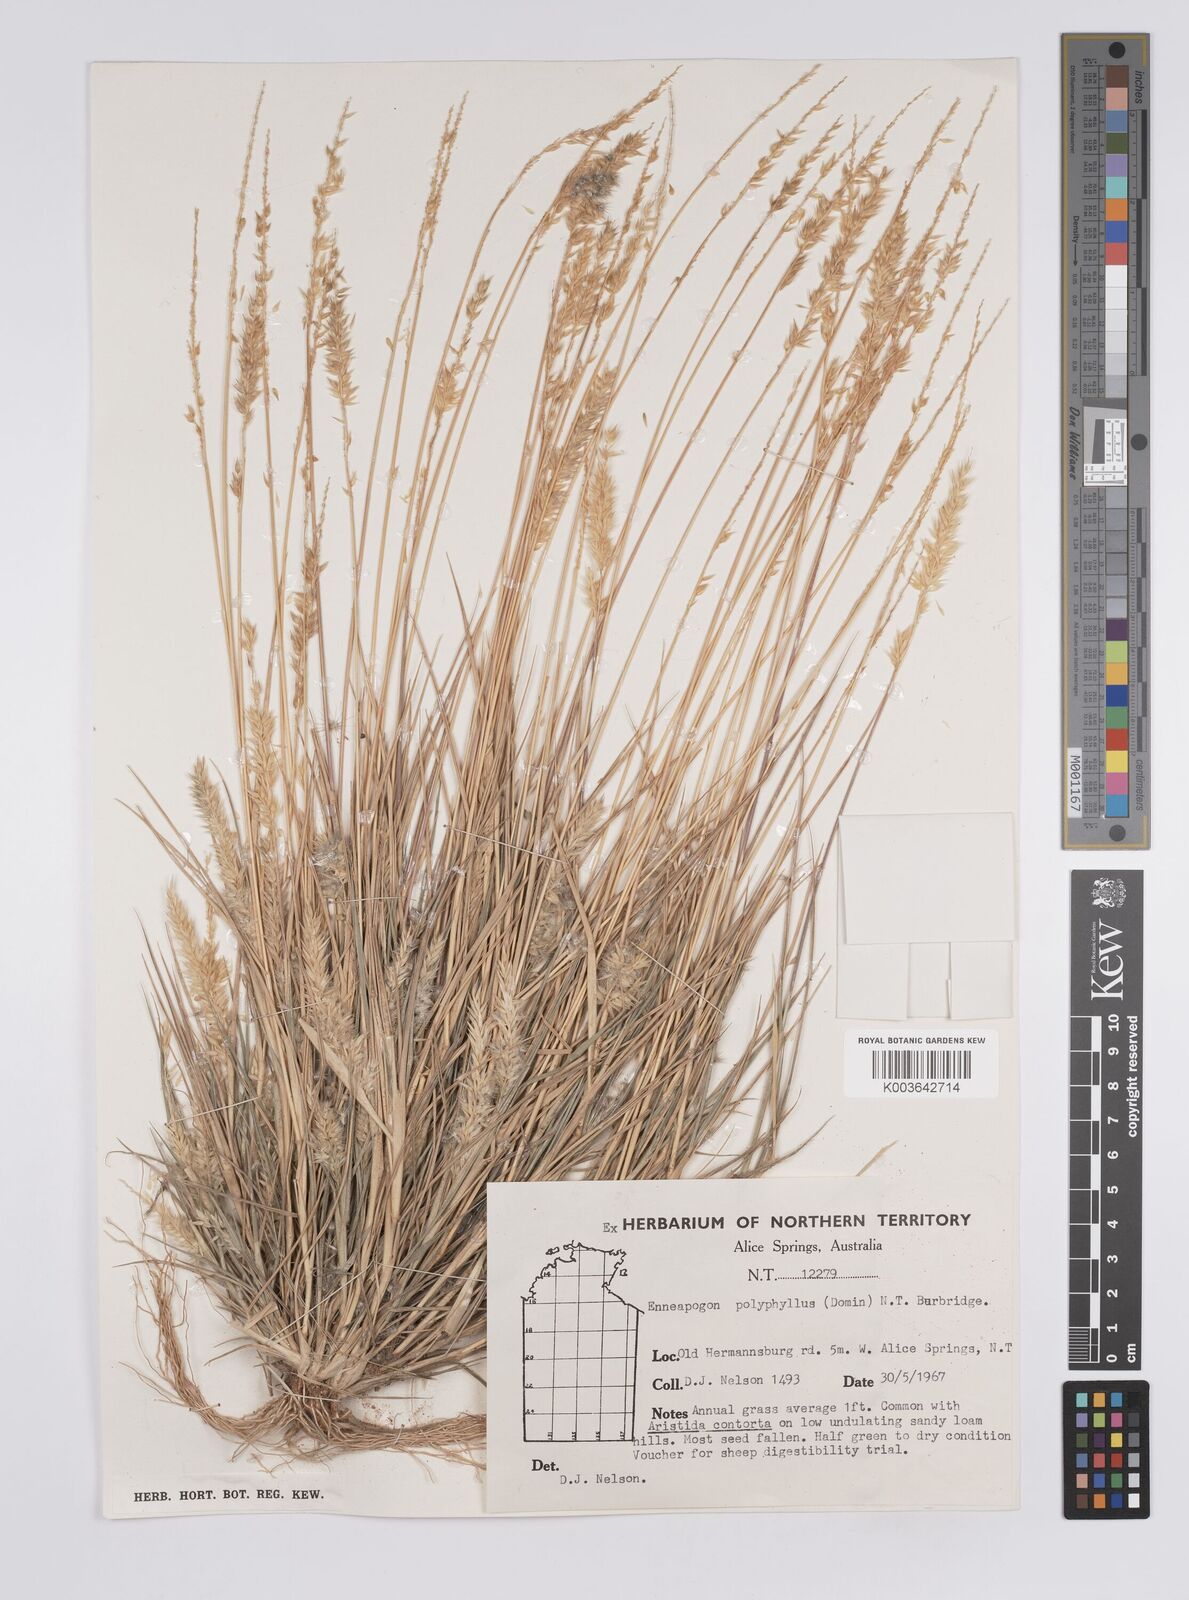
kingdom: Plantae
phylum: Tracheophyta
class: Liliopsida
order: Poales
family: Poaceae
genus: Enneapogon
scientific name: Enneapogon polyphyllus
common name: Leafy nineawn
